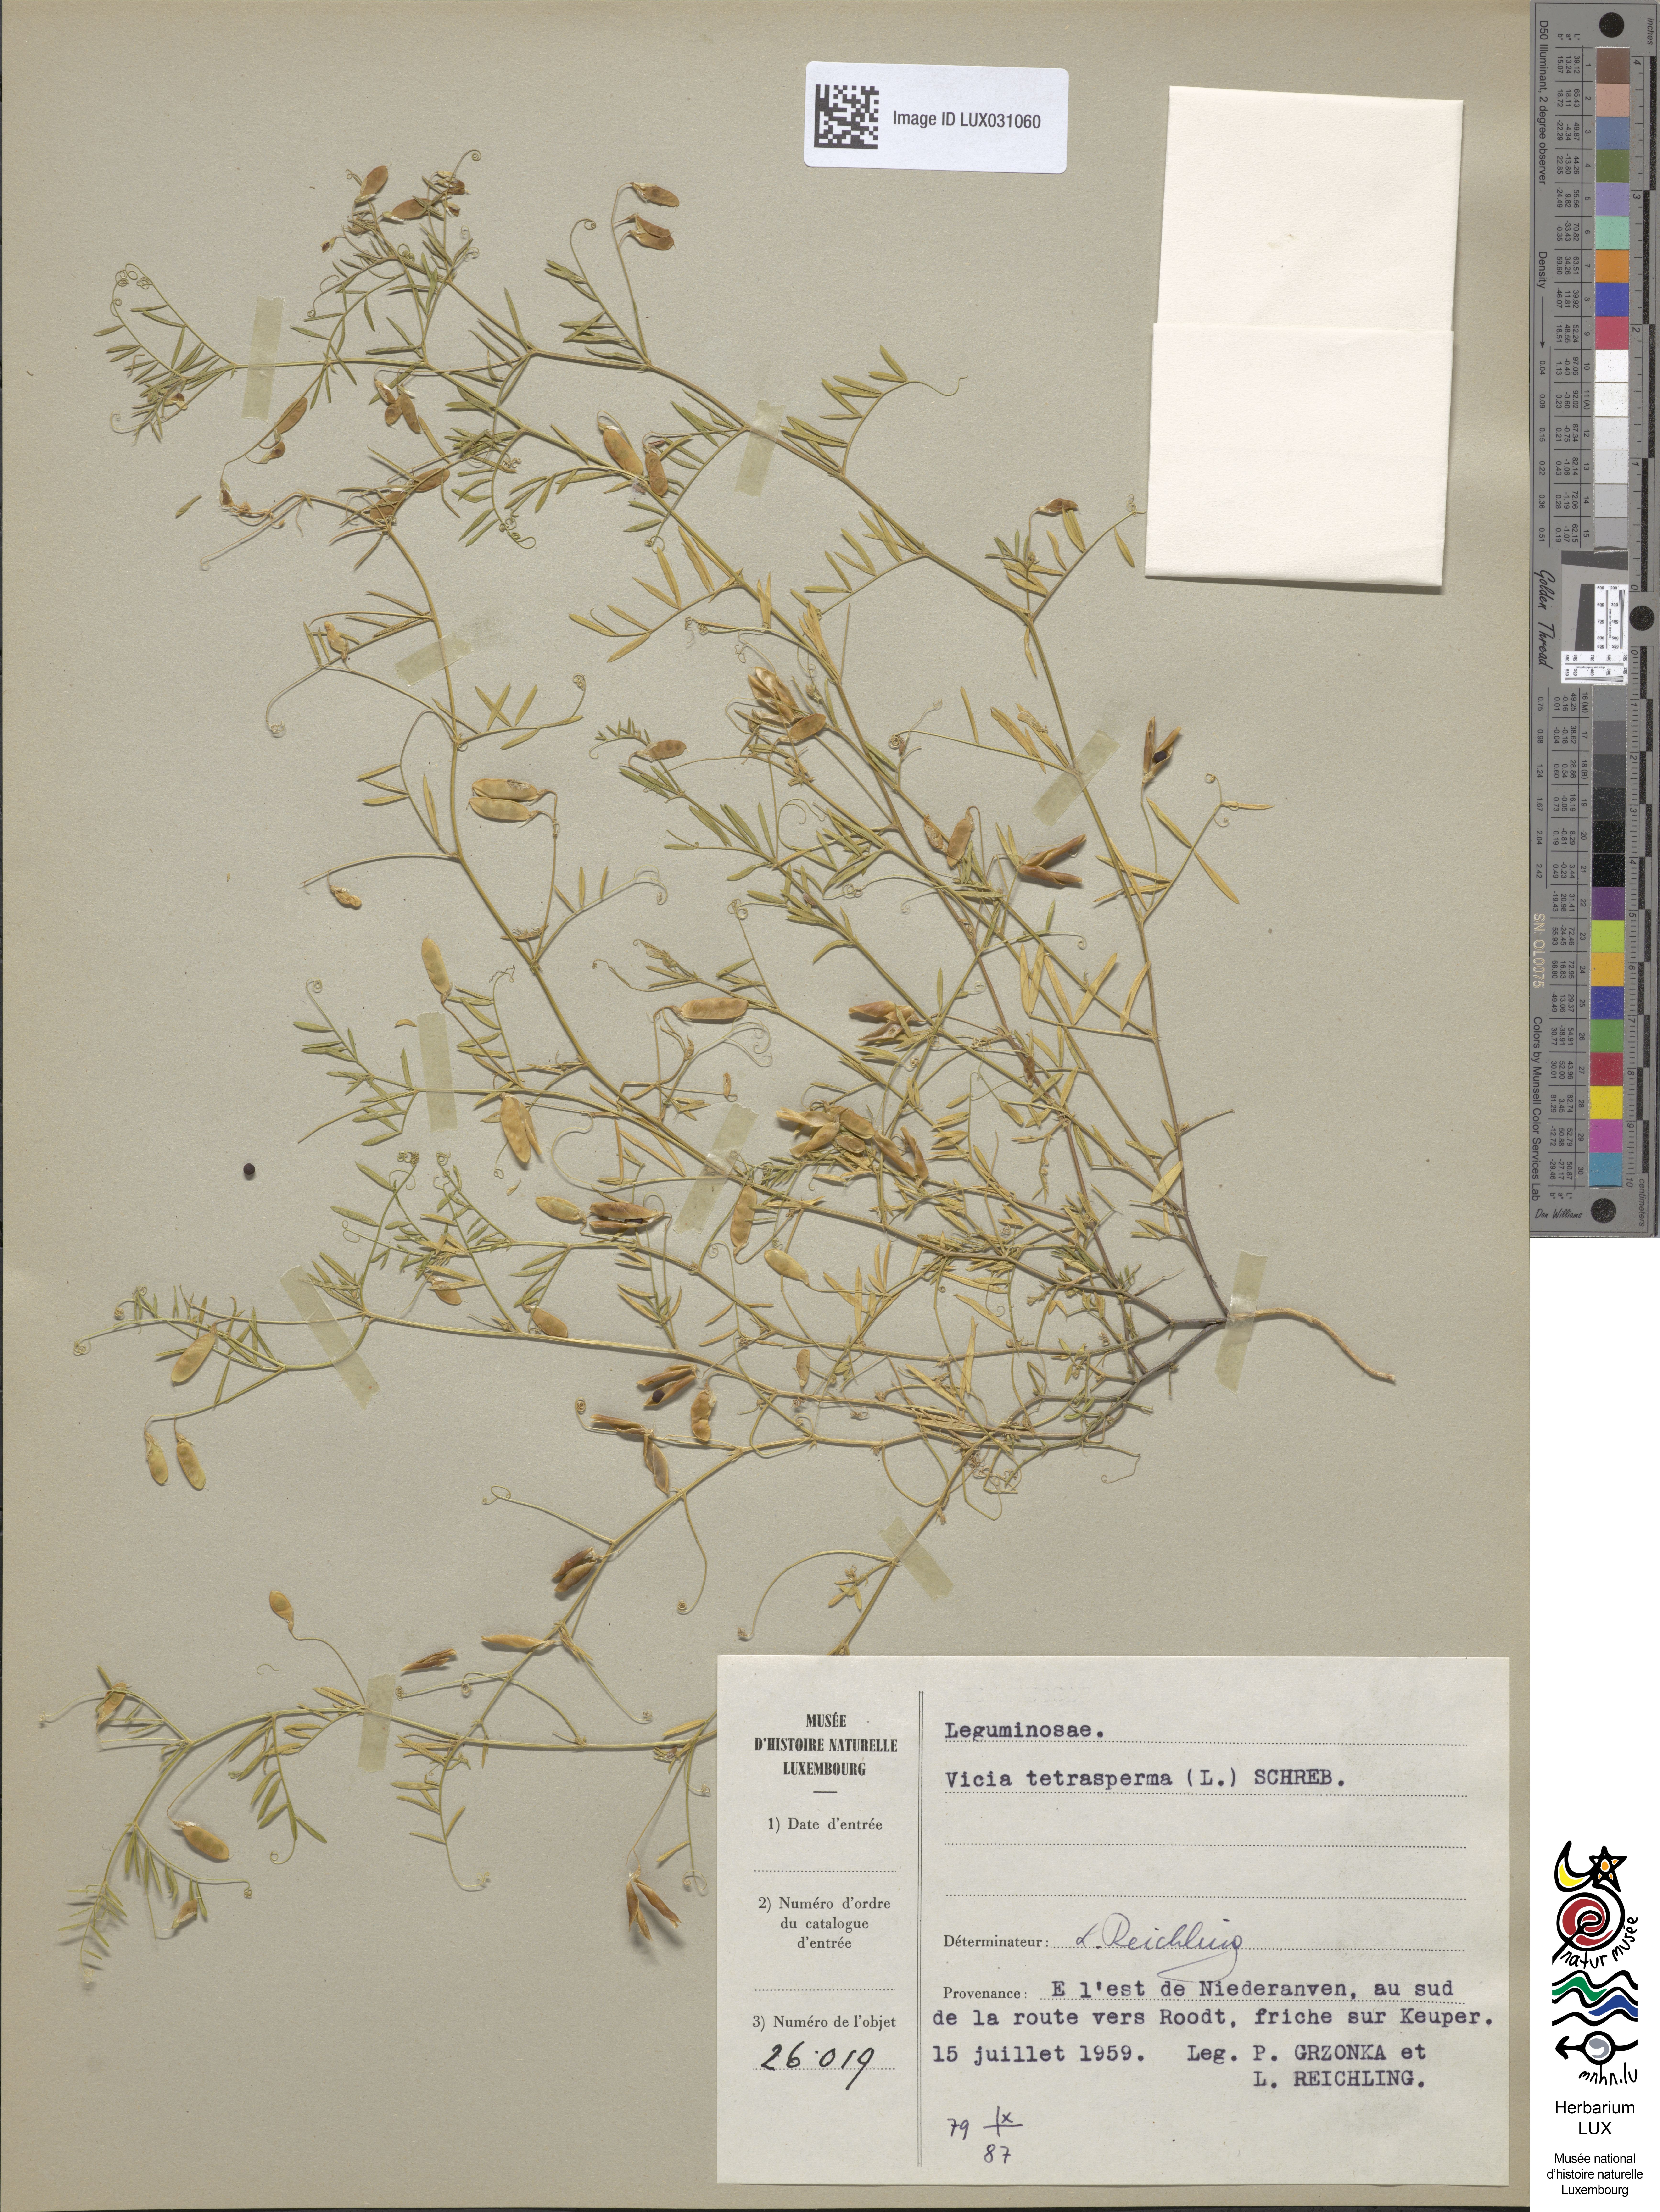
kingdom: Plantae
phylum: Tracheophyta
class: Magnoliopsida
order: Fabales
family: Fabaceae
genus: Vicia
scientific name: Vicia tetrasperma
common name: Smooth tare
